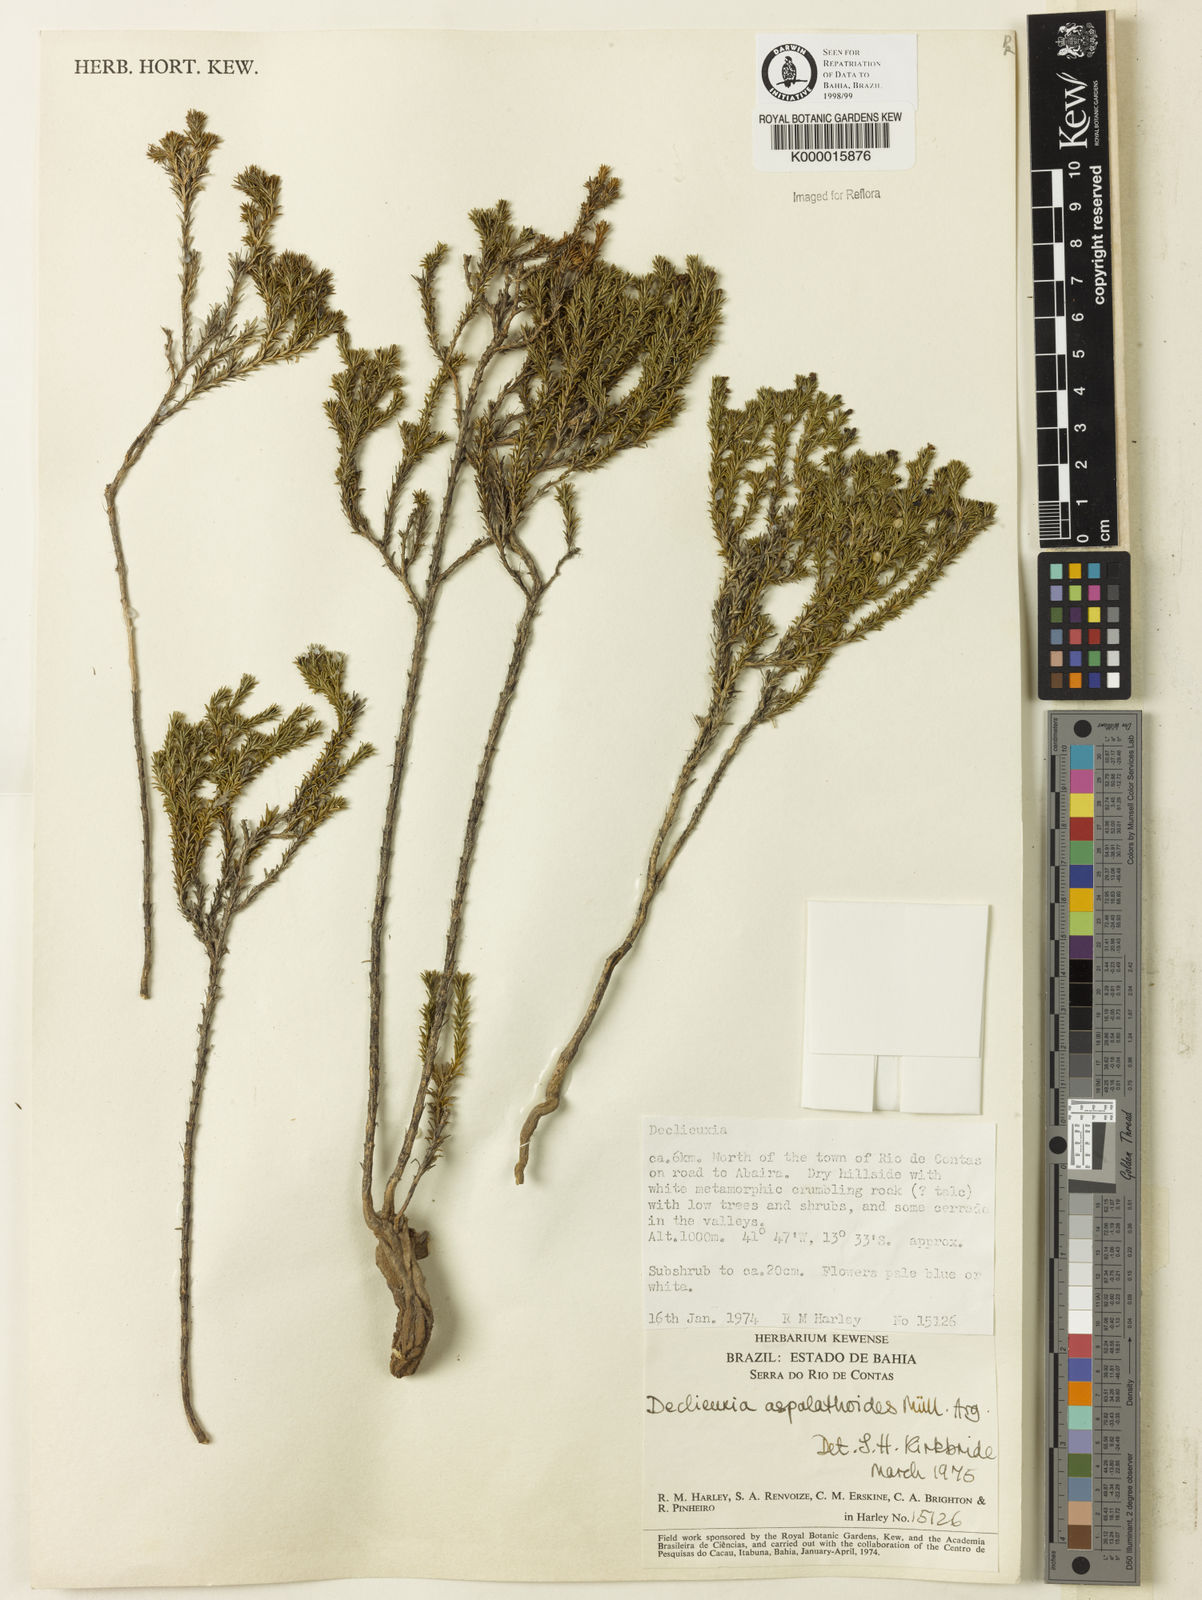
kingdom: Plantae
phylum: Tracheophyta
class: Magnoliopsida
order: Gentianales
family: Rubiaceae
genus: Declieuxia
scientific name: Declieuxia aspalathoides
